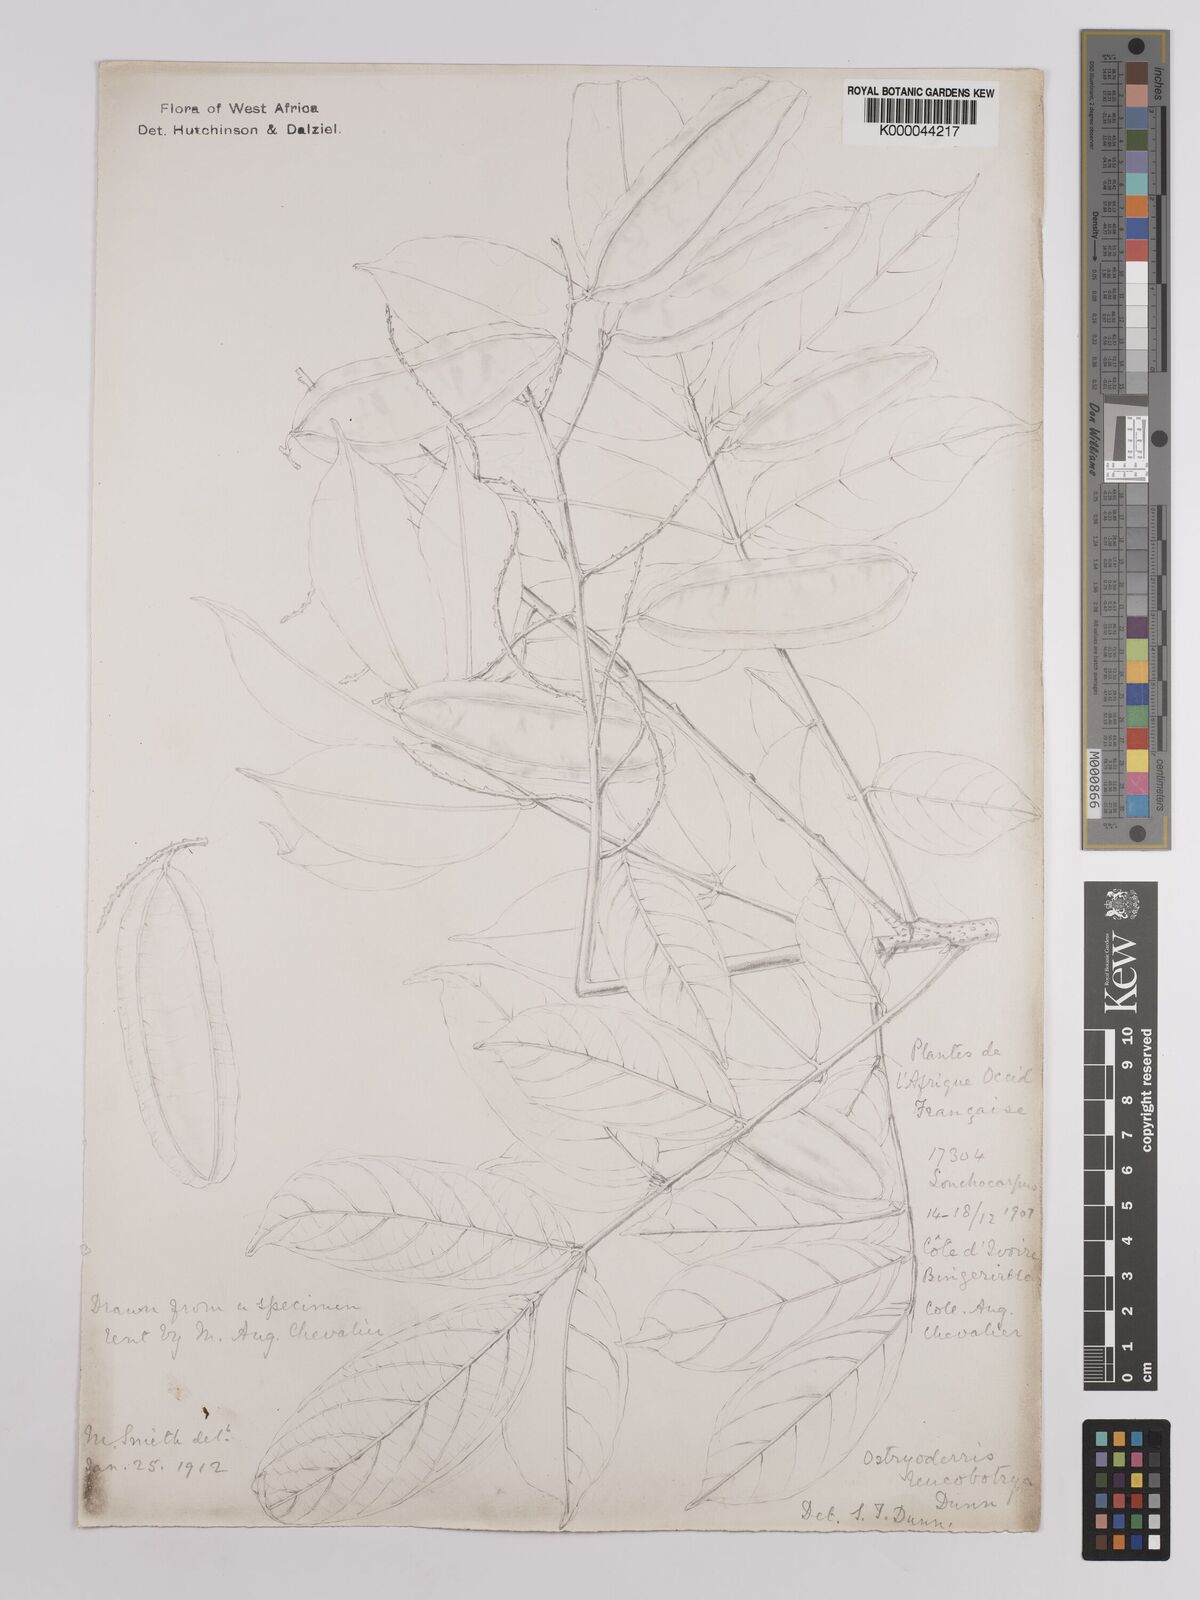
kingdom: Plantae
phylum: Tracheophyta
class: Magnoliopsida
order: Fabales
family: Fabaceae
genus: Aganope
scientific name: Aganope leucobotrya
